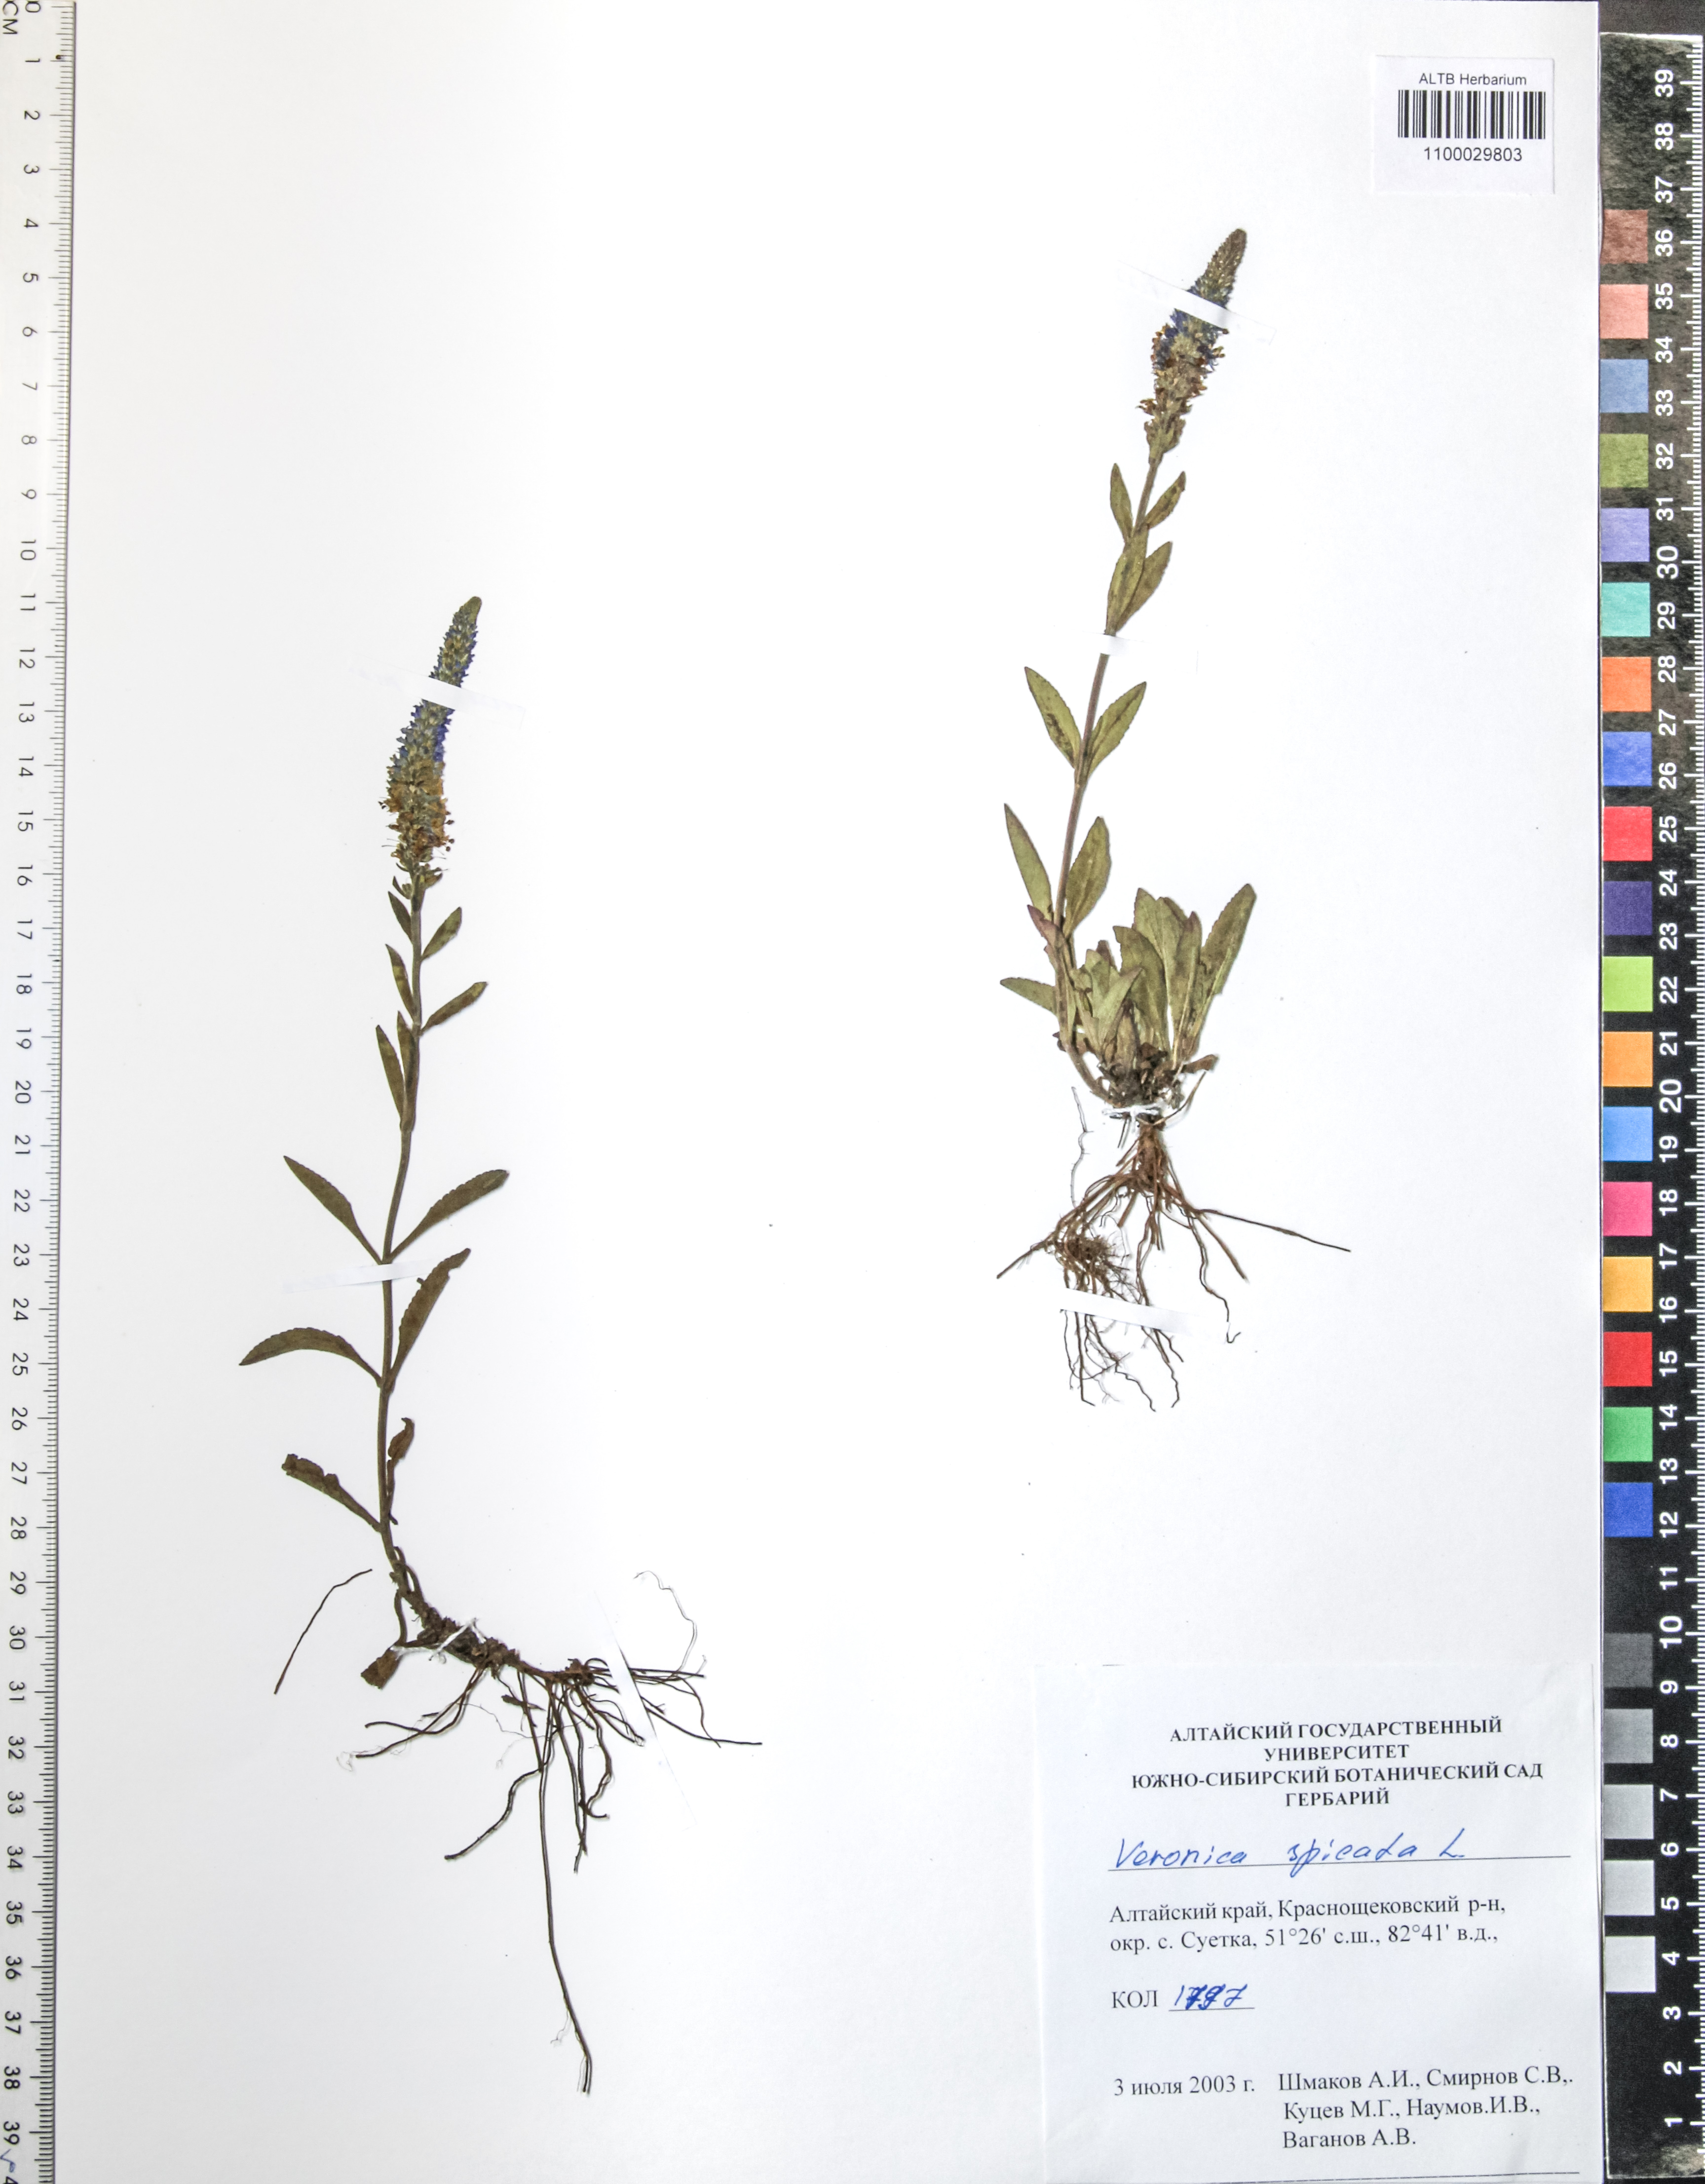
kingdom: Plantae
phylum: Tracheophyta
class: Magnoliopsida
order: Lamiales
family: Plantaginaceae
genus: Veronica
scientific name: Veronica spicata
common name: Spiked speedwell
